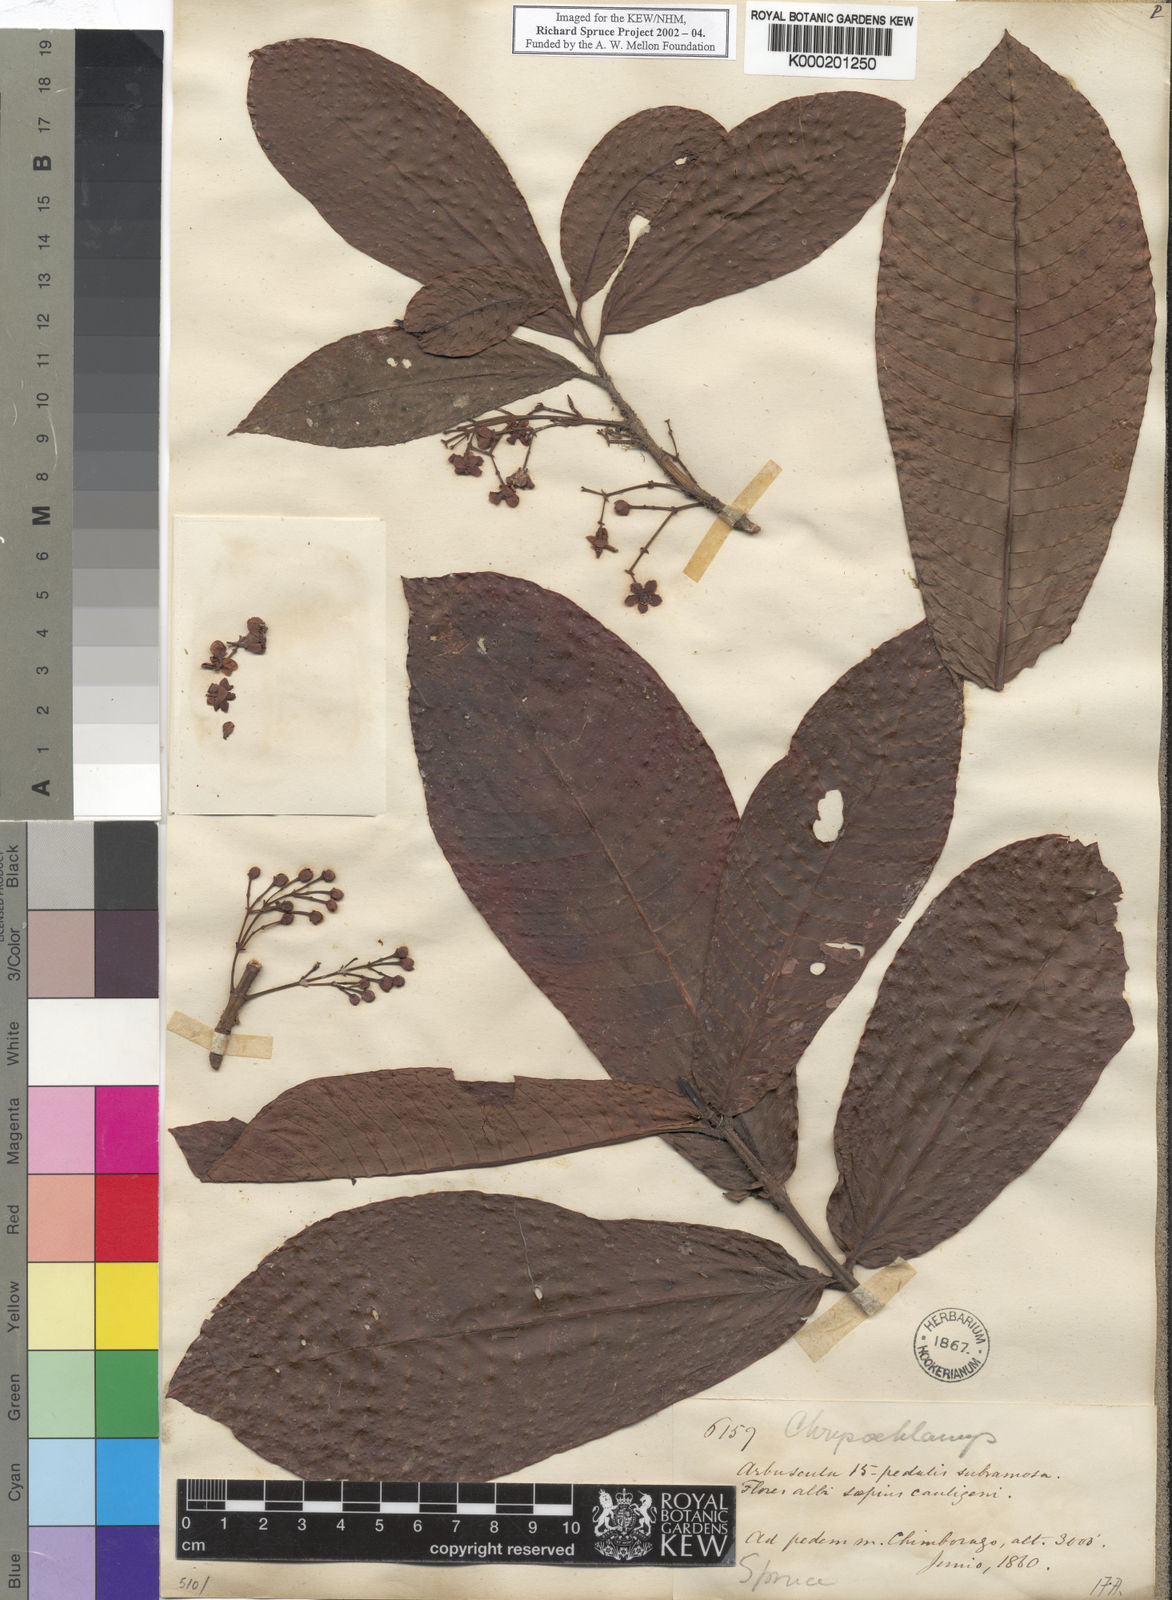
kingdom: Plantae
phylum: Tracheophyta
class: Magnoliopsida
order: Malpighiales
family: Clusiaceae
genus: Chrysochlamys
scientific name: Chrysochlamys
